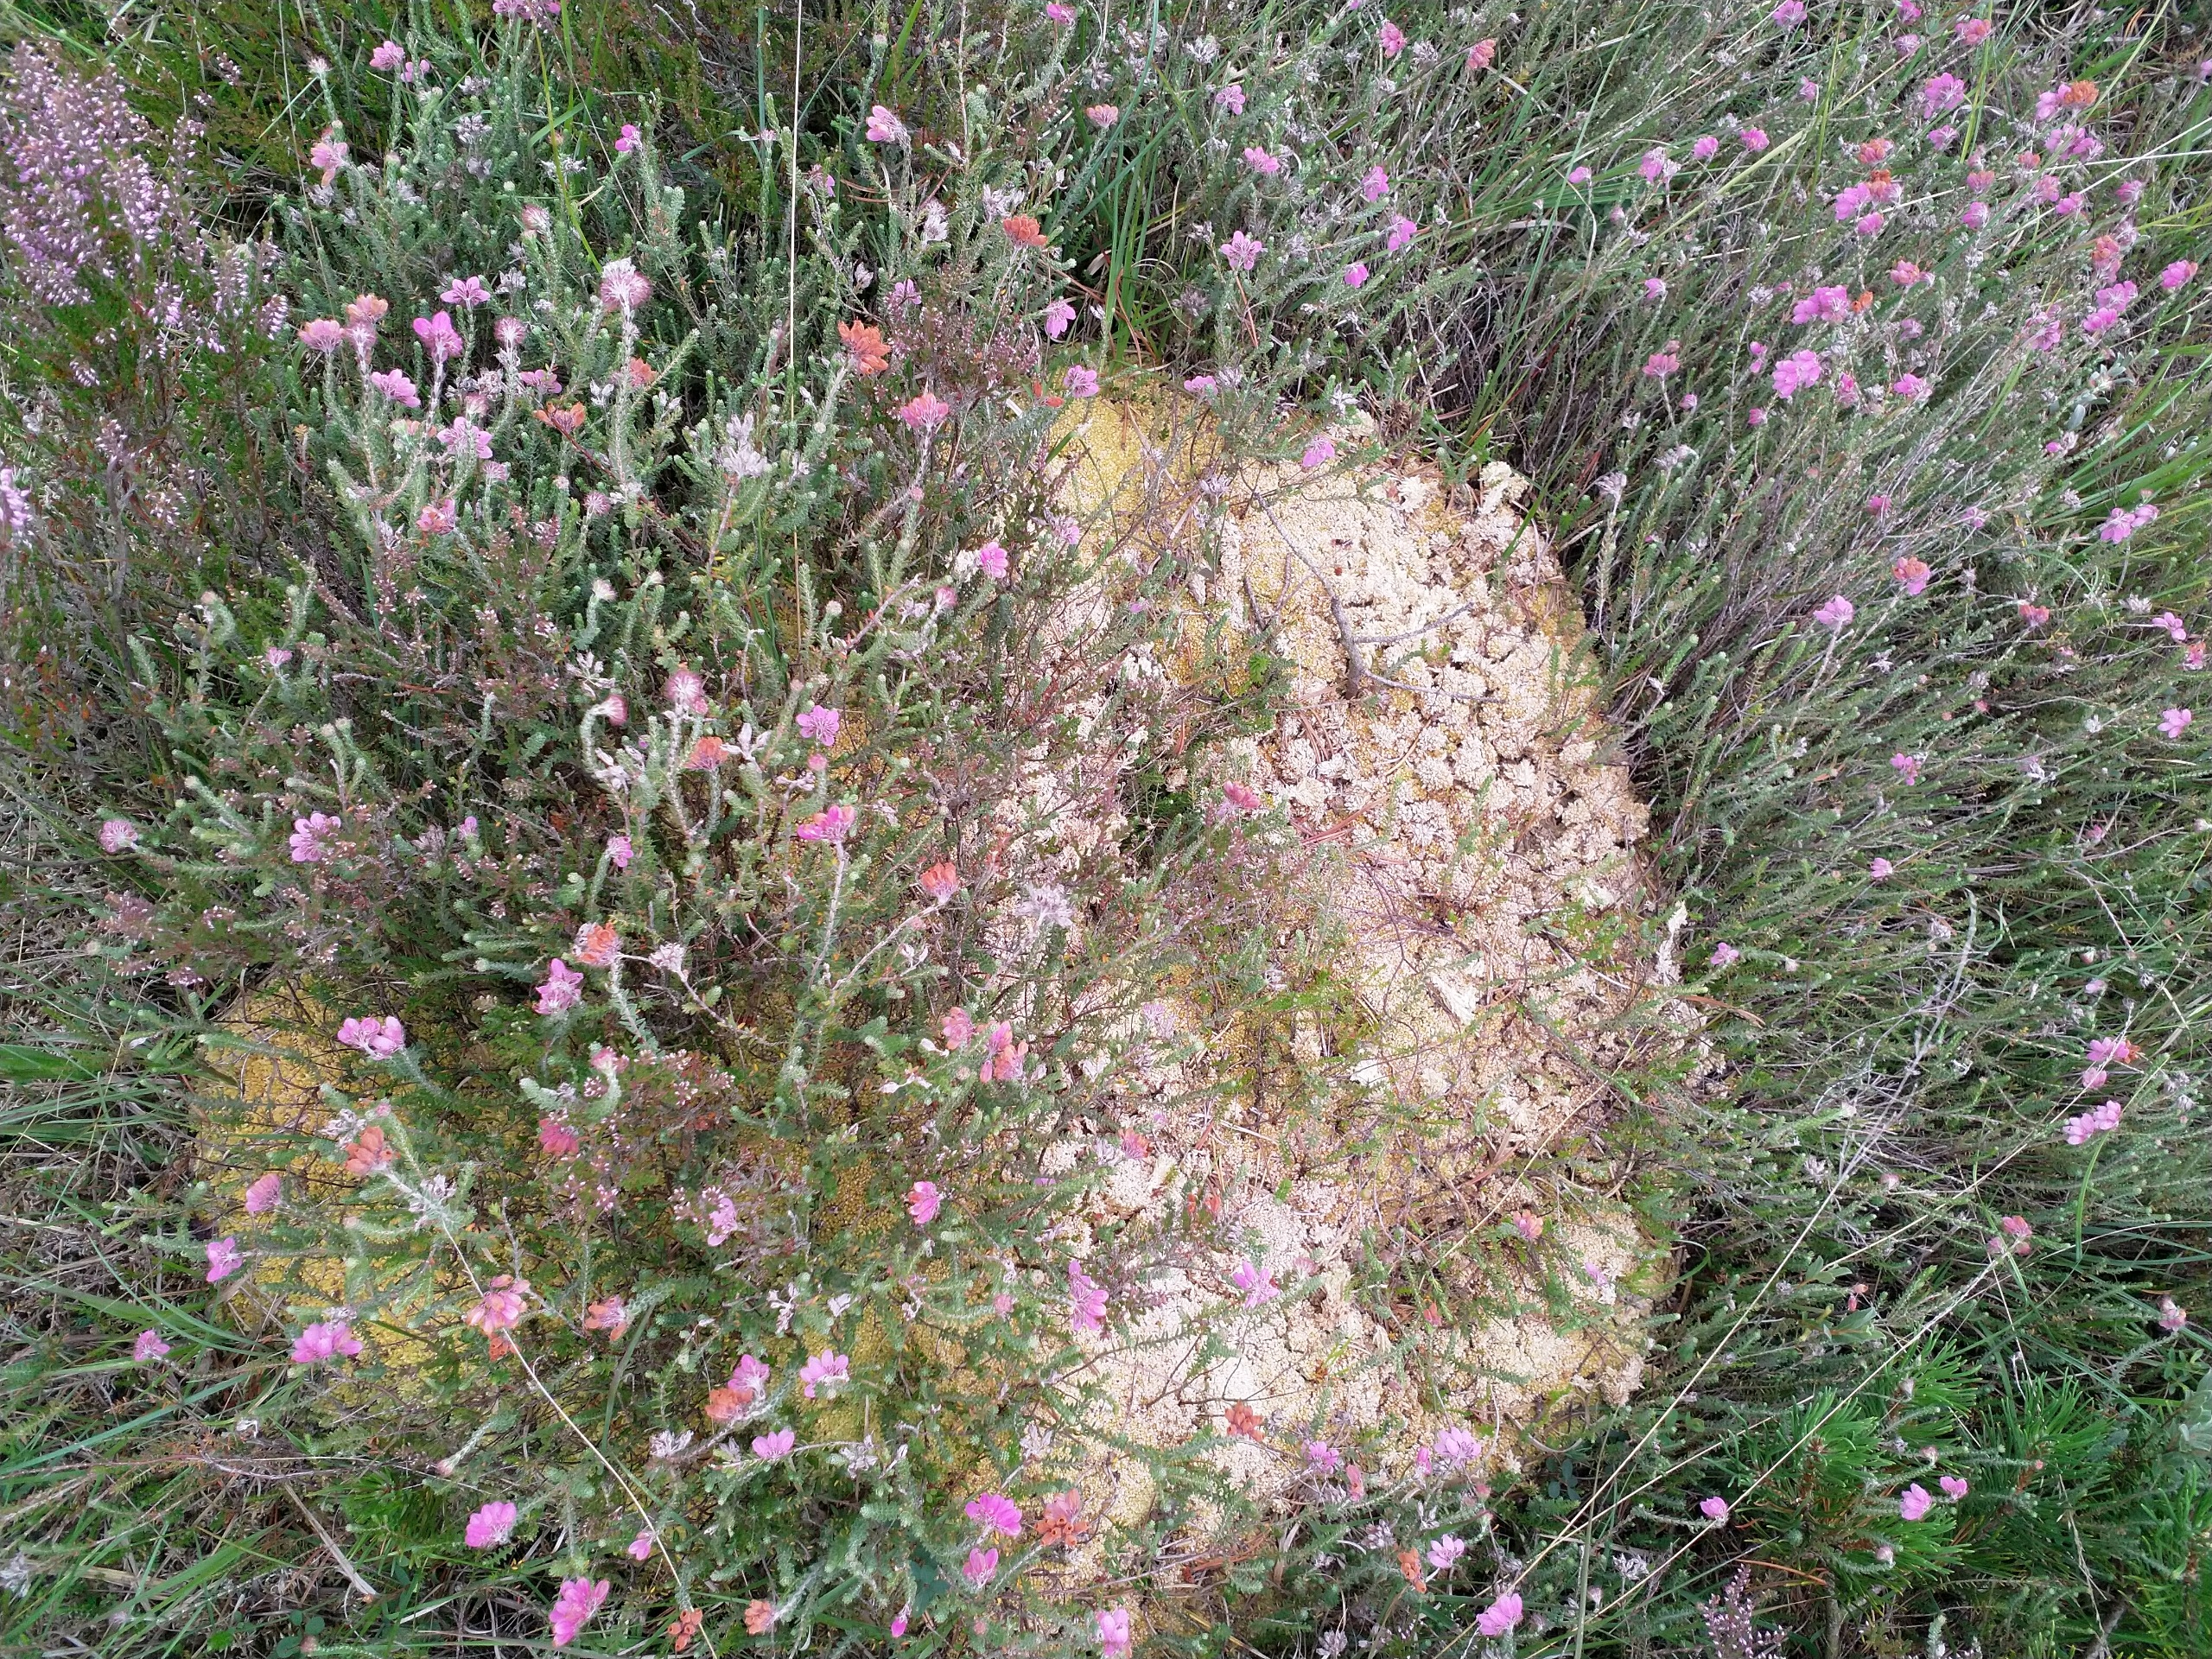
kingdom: Plantae
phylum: Bryophyta
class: Sphagnopsida
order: Sphagnales
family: Sphagnaceae
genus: Sphagnum
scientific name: Sphagnum
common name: Tørvemosslægten
